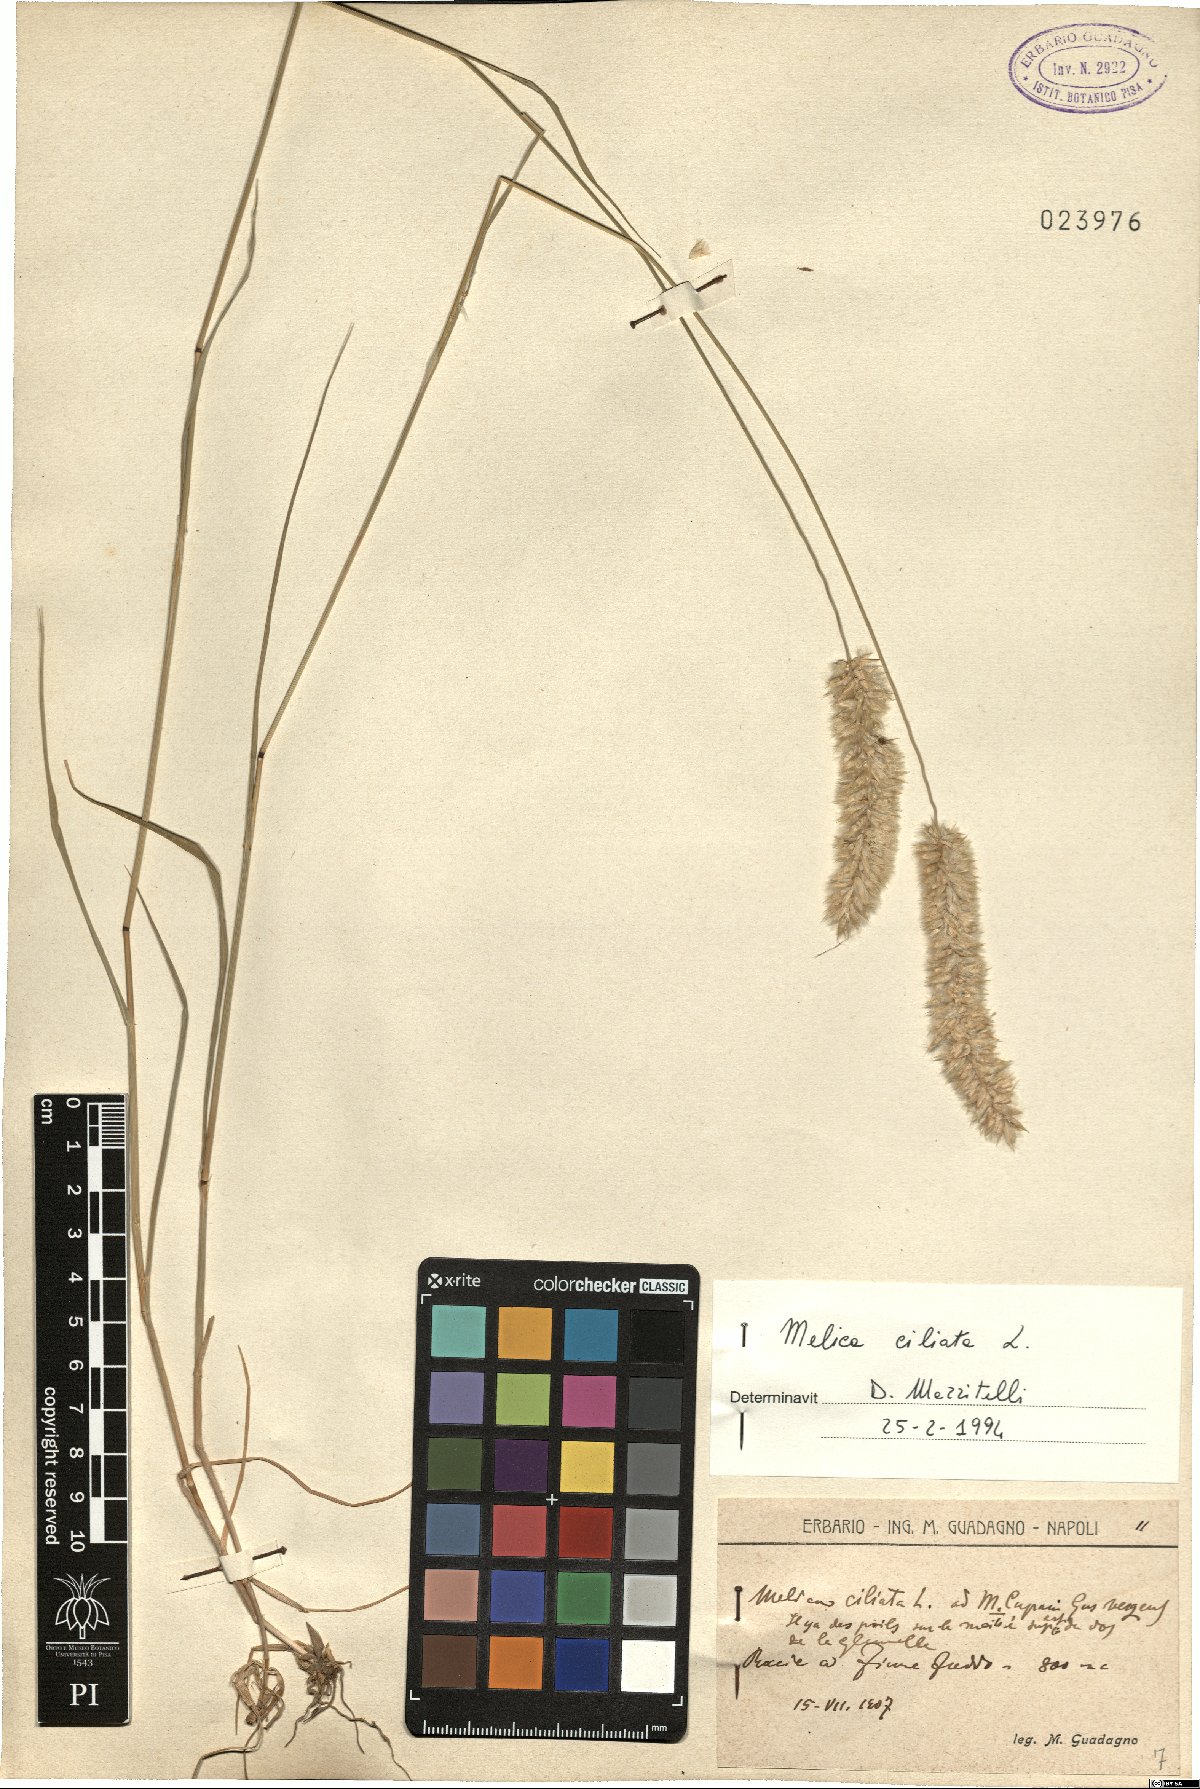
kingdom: Plantae
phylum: Tracheophyta
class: Liliopsida
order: Poales
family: Poaceae
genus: Melica
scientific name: Melica ciliata
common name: Hairy melicgrass
